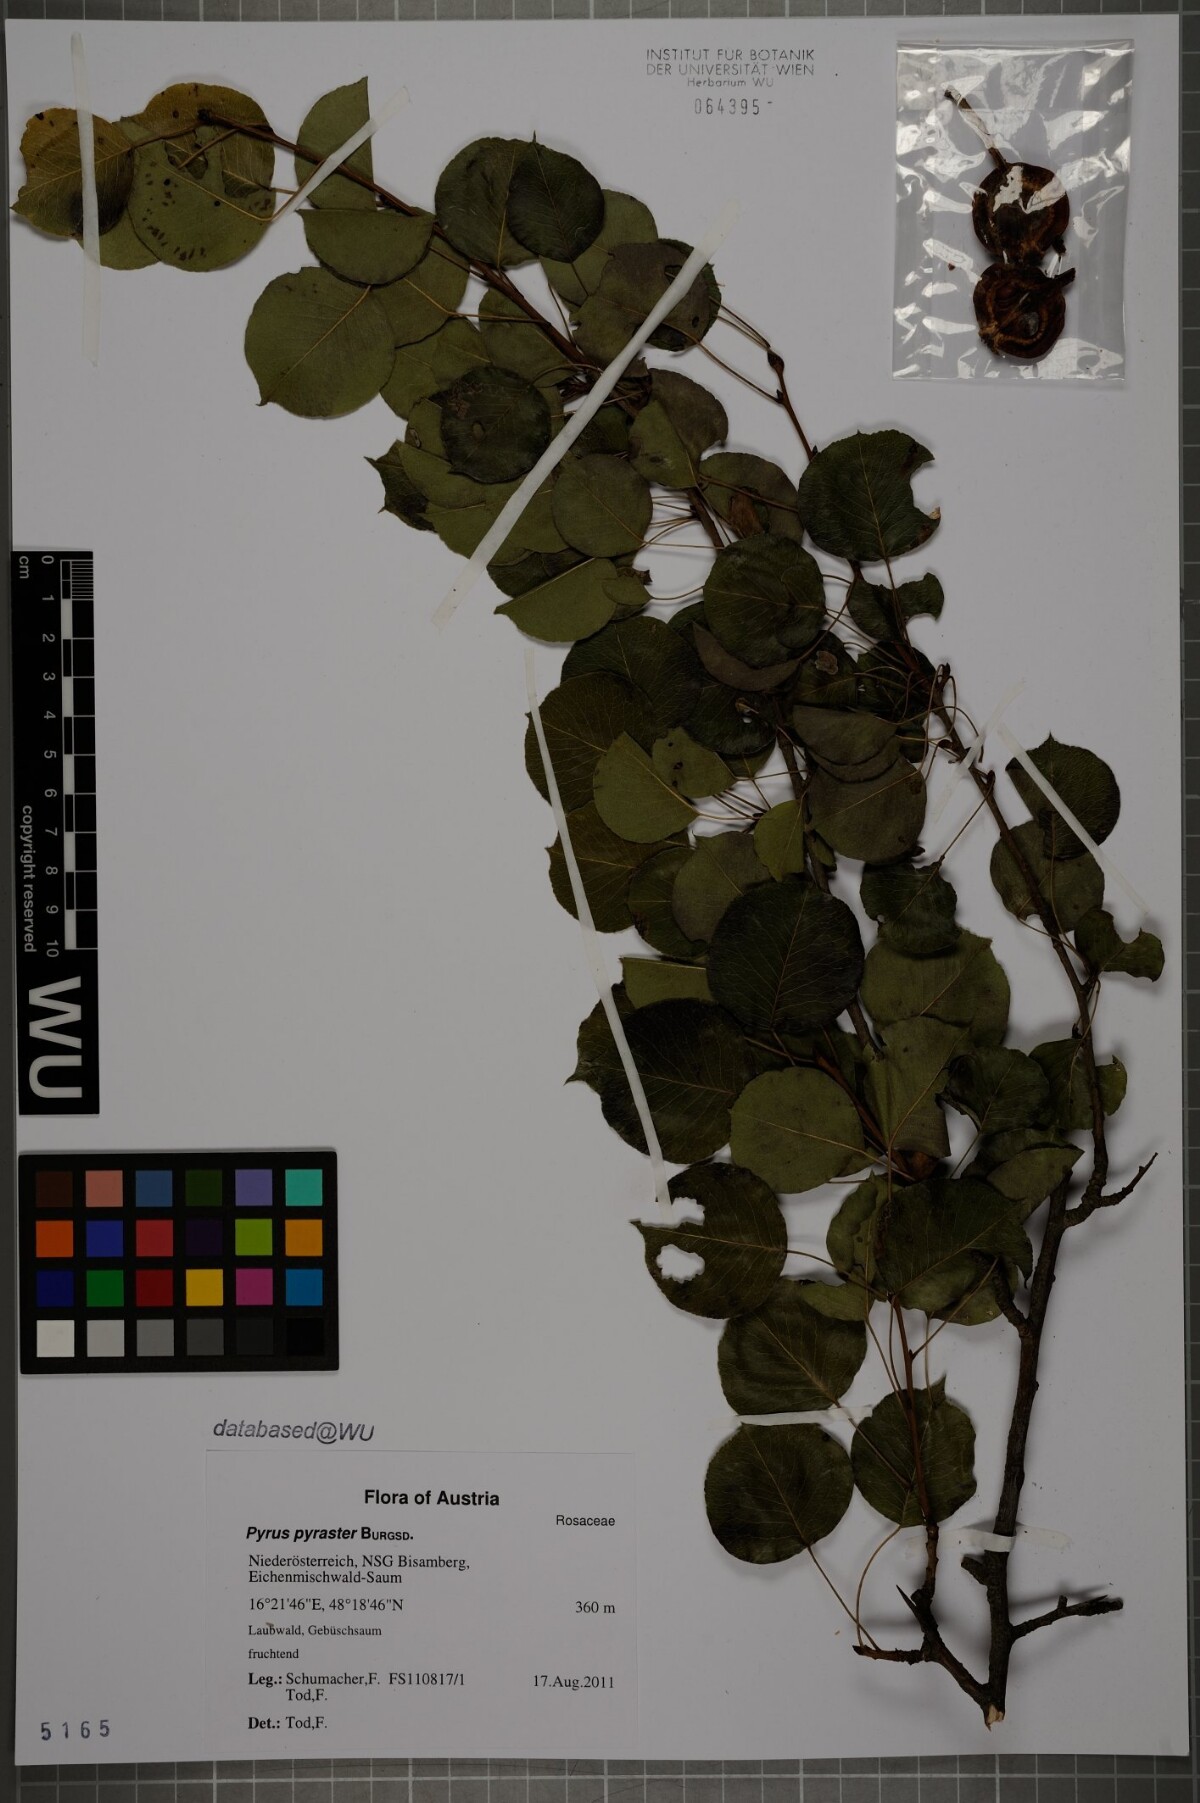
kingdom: Plantae
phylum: Tracheophyta
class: Magnoliopsida
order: Rosales
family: Rosaceae
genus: Pyrus
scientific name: Pyrus pyraster
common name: Wild pear
